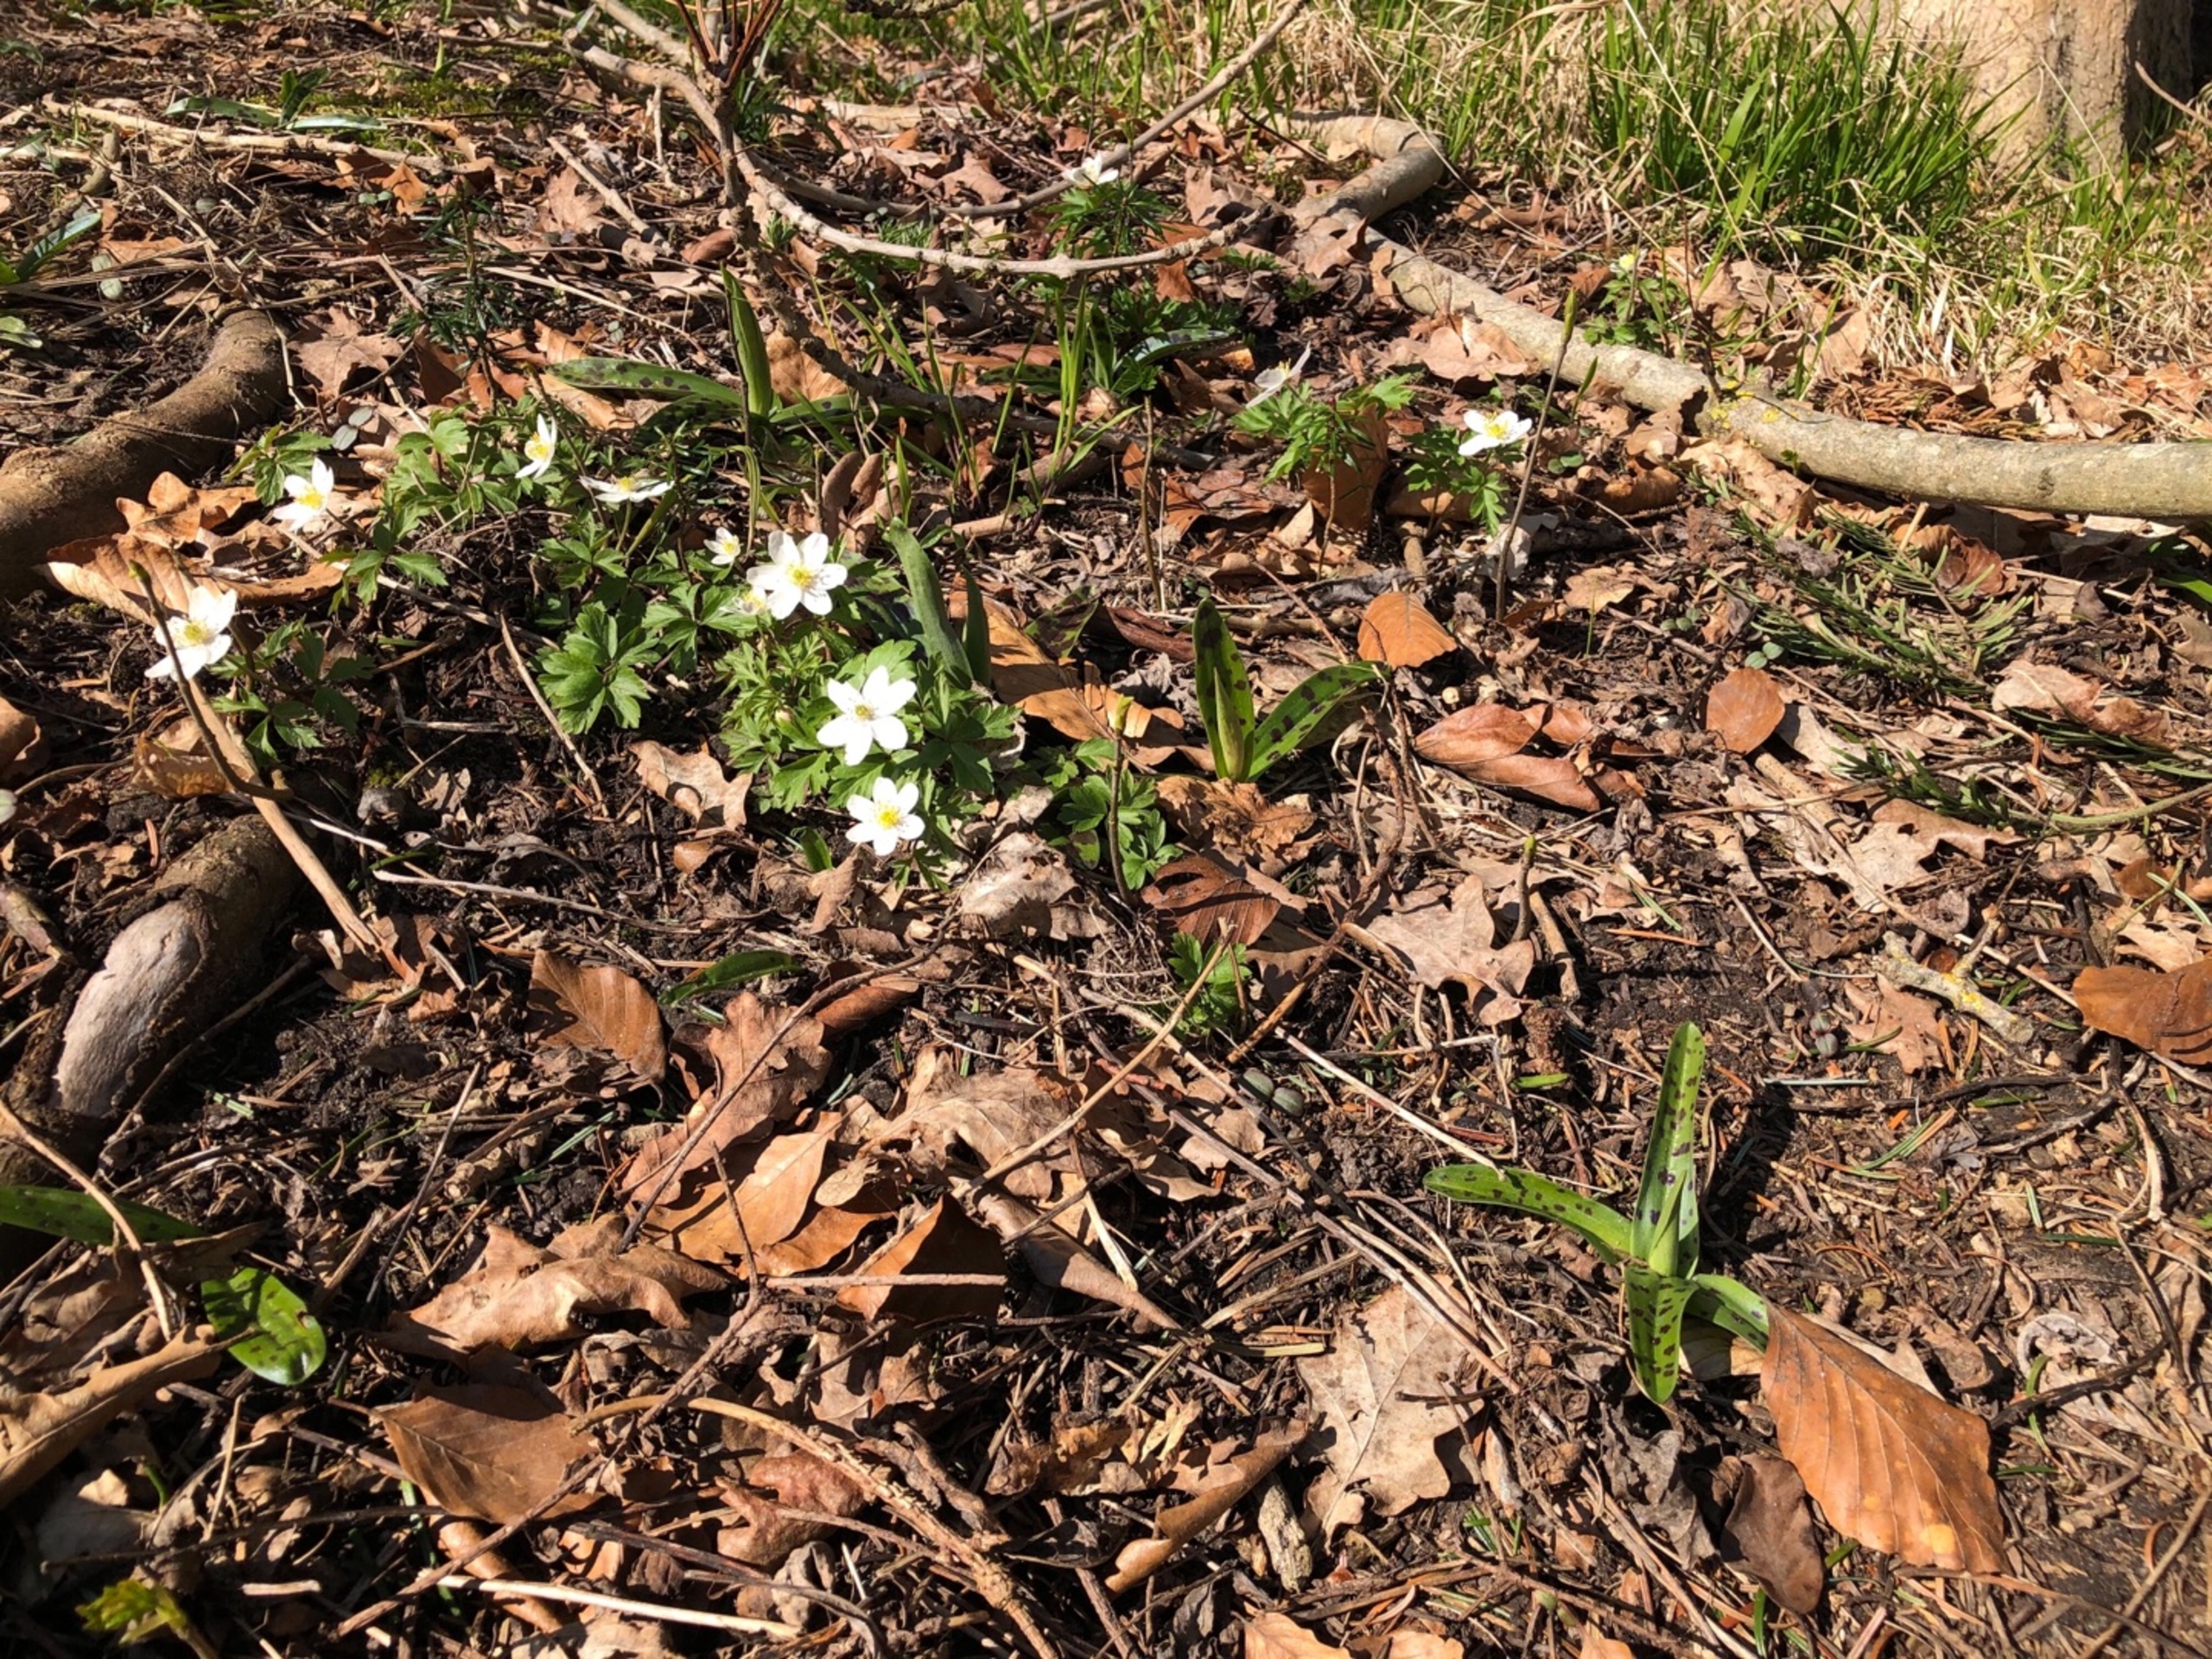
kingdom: Plantae
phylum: Tracheophyta
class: Magnoliopsida
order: Ranunculales
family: Ranunculaceae
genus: Anemone
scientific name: Anemone nemorosa
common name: Hvid anemone
